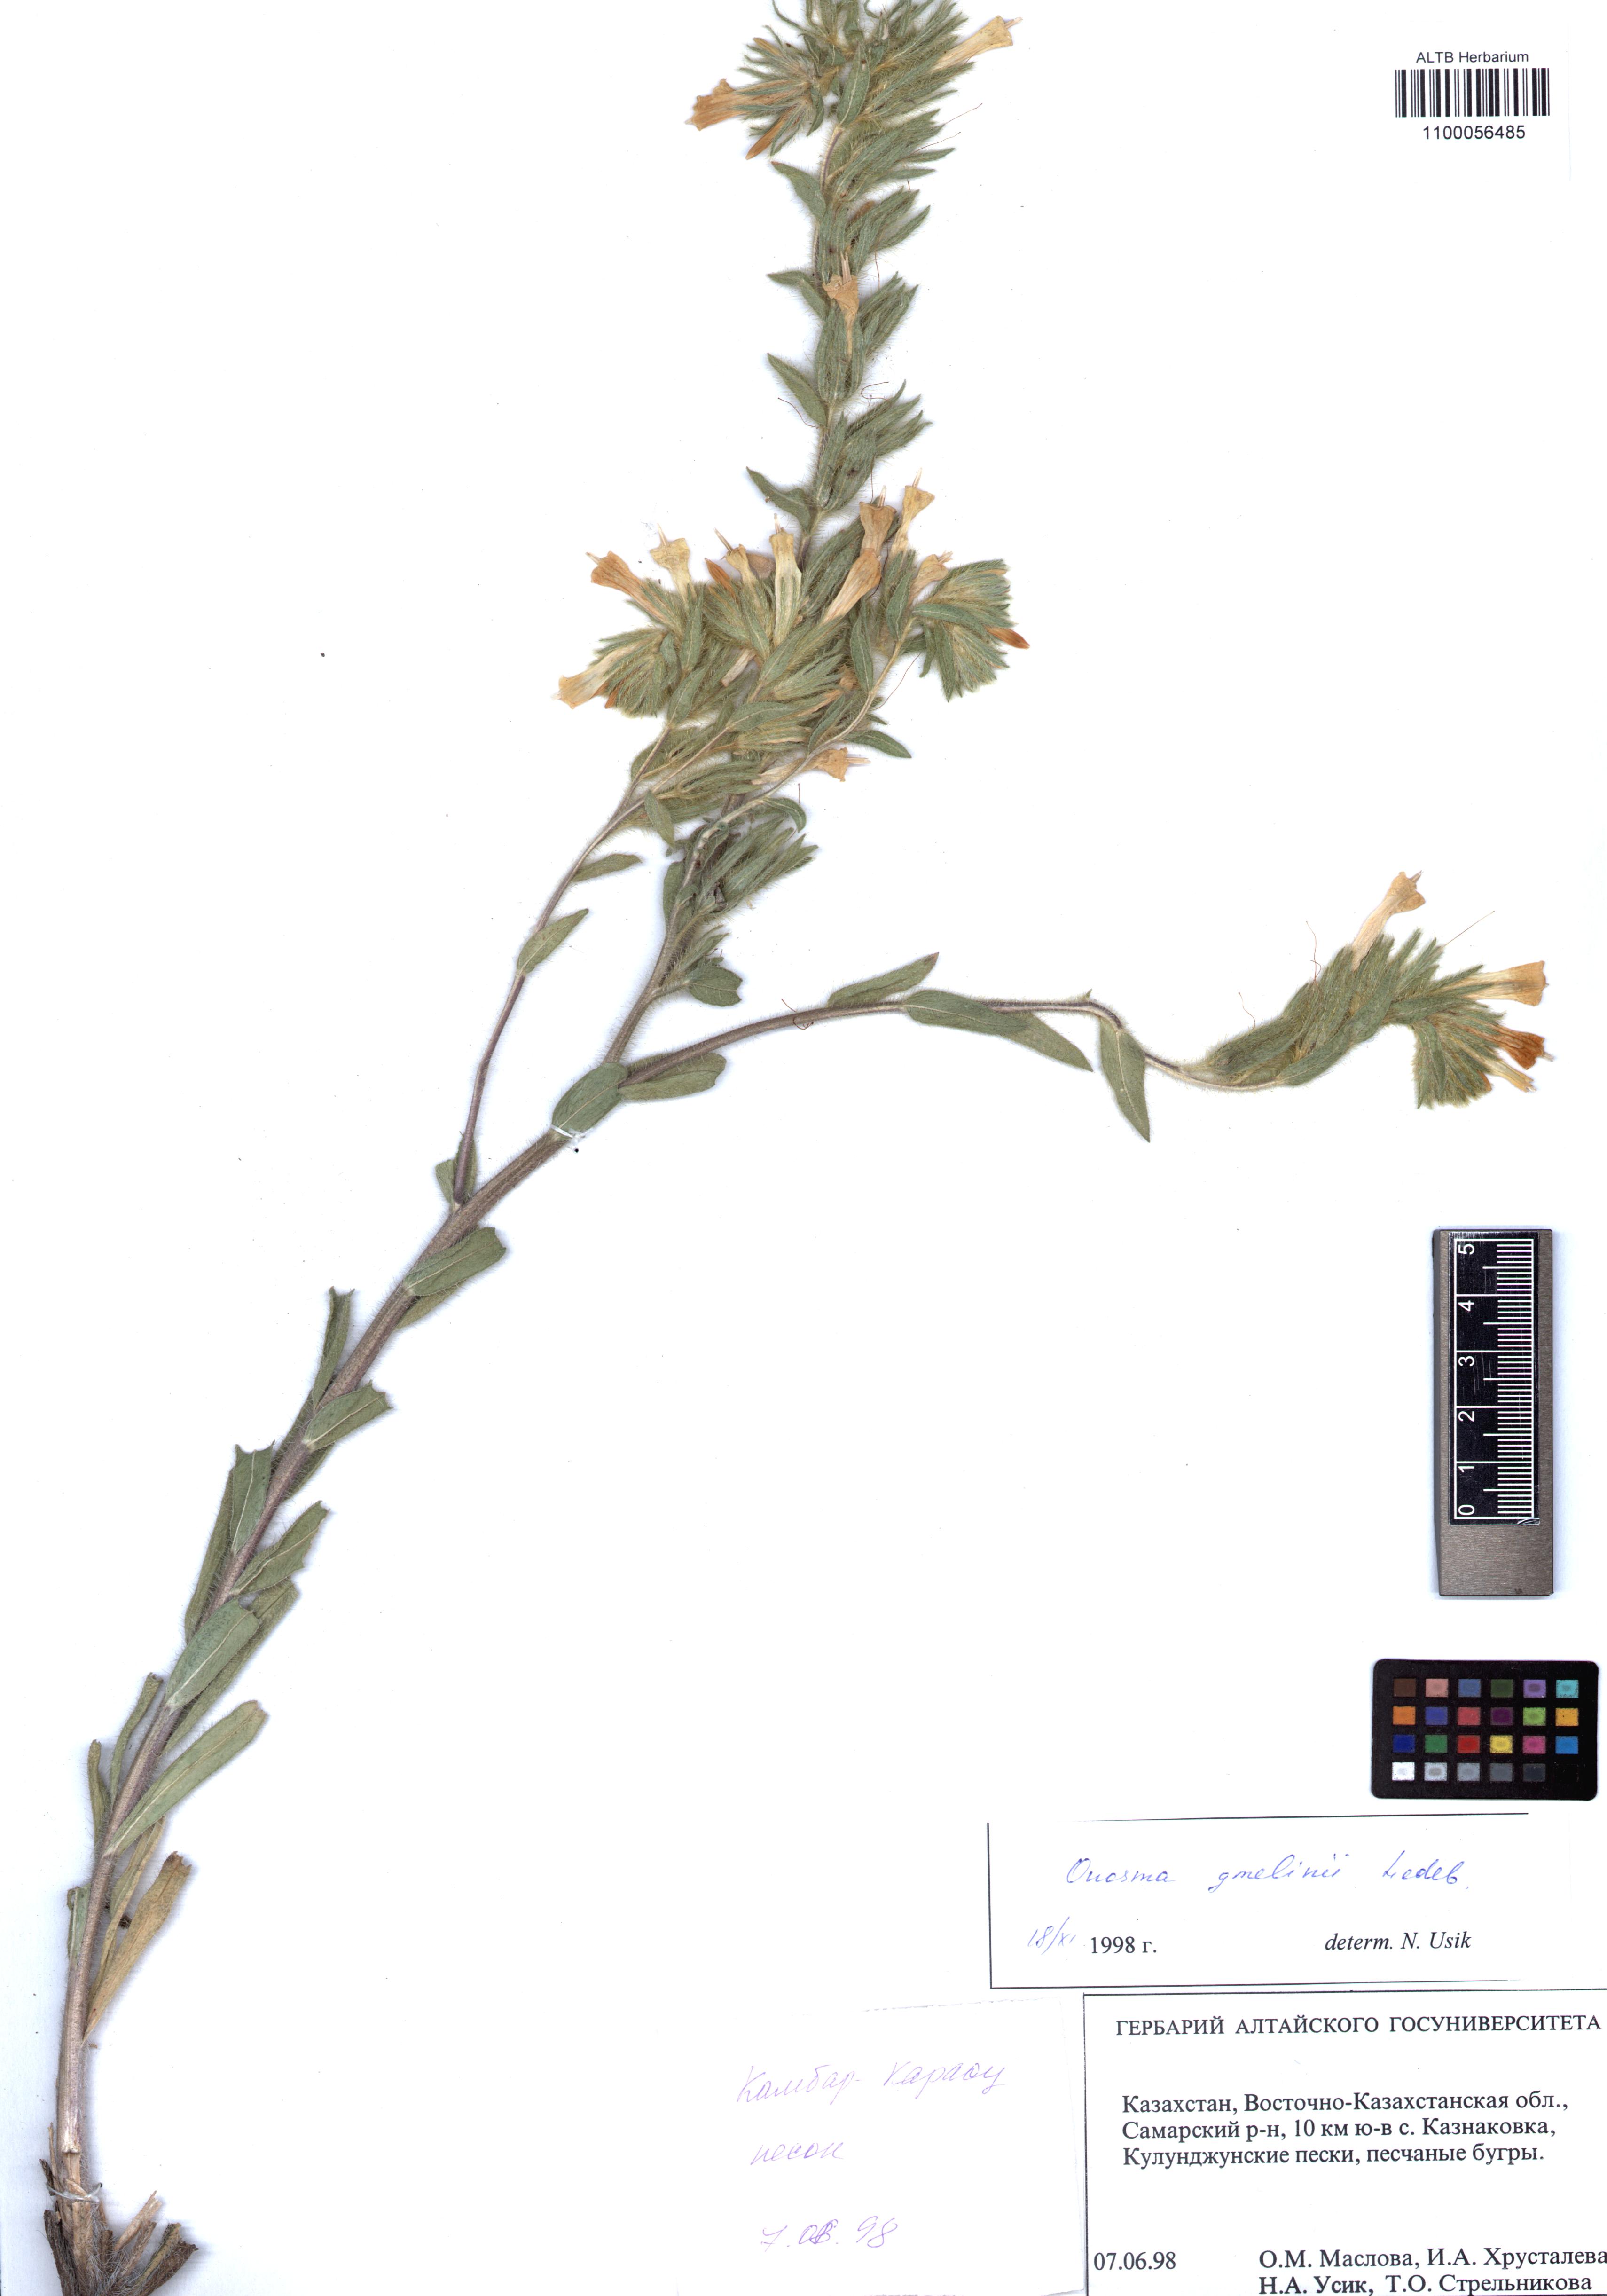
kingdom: Plantae
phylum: Tracheophyta
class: Magnoliopsida
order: Boraginales
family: Boraginaceae
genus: Onosma
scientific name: Onosma gmelinii
